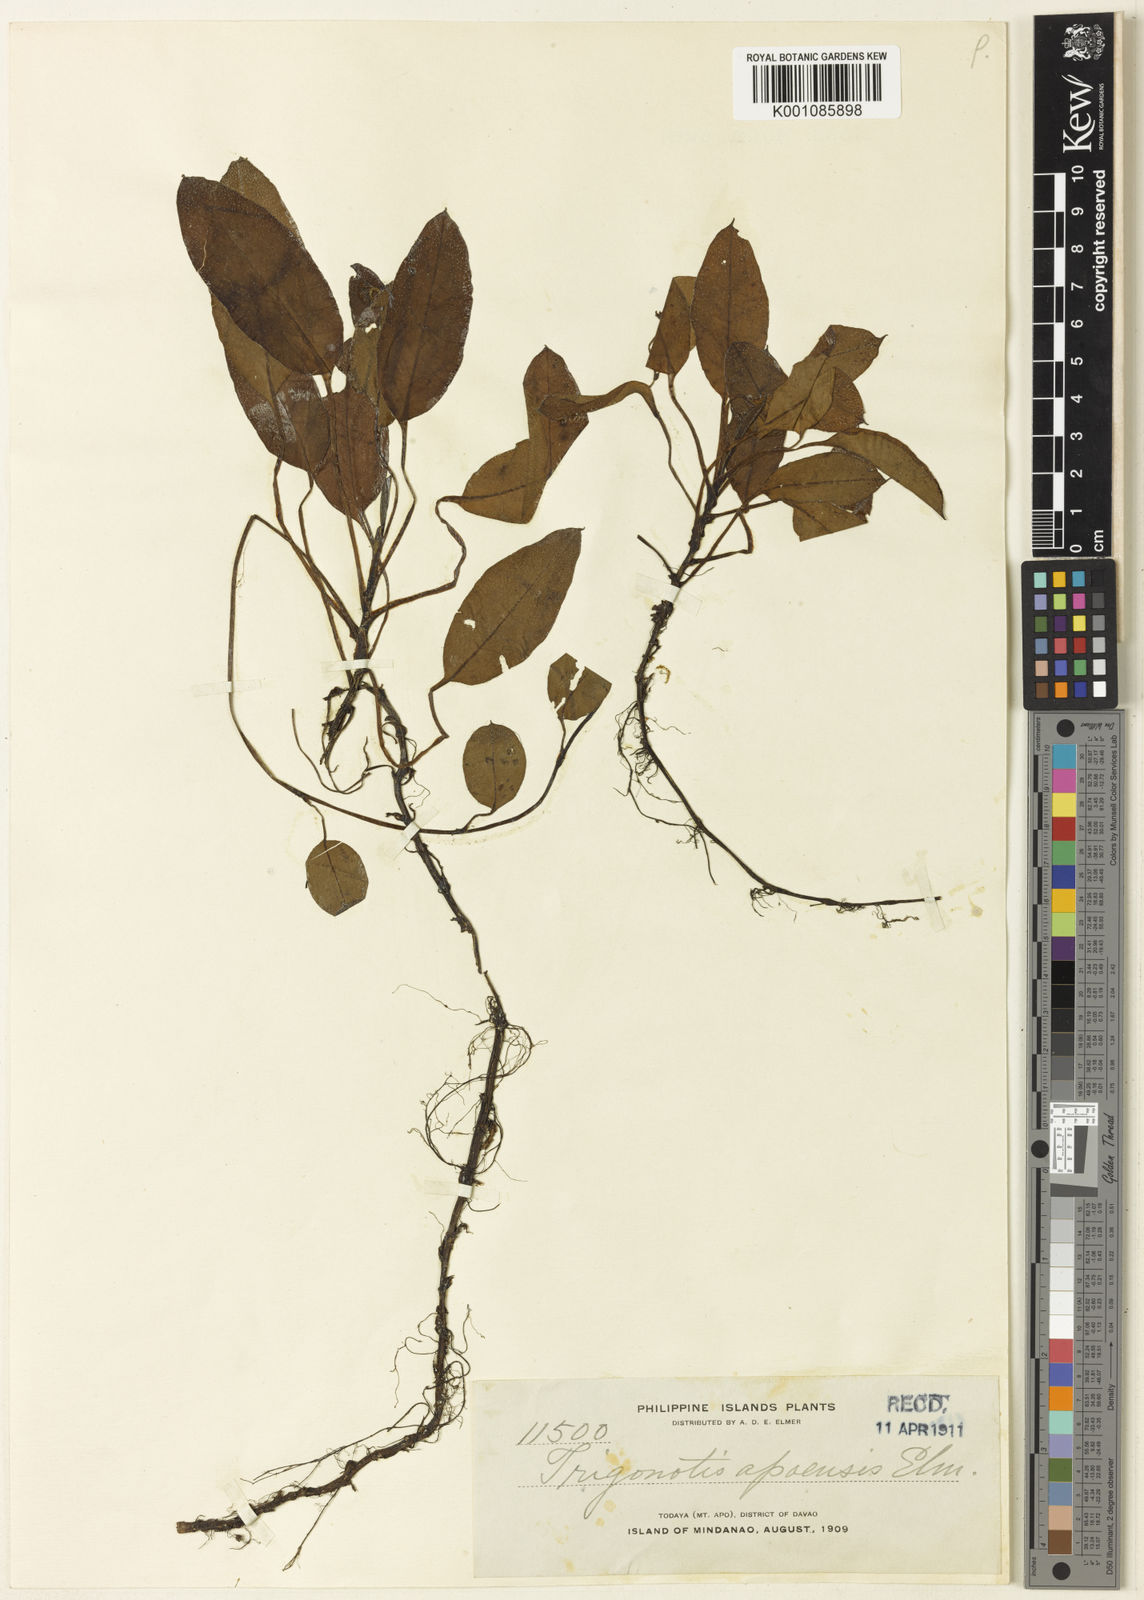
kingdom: Plantae
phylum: Tracheophyta
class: Magnoliopsida
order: Boraginales
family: Boraginaceae
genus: Trigonotis
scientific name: Trigonotis apoensis
